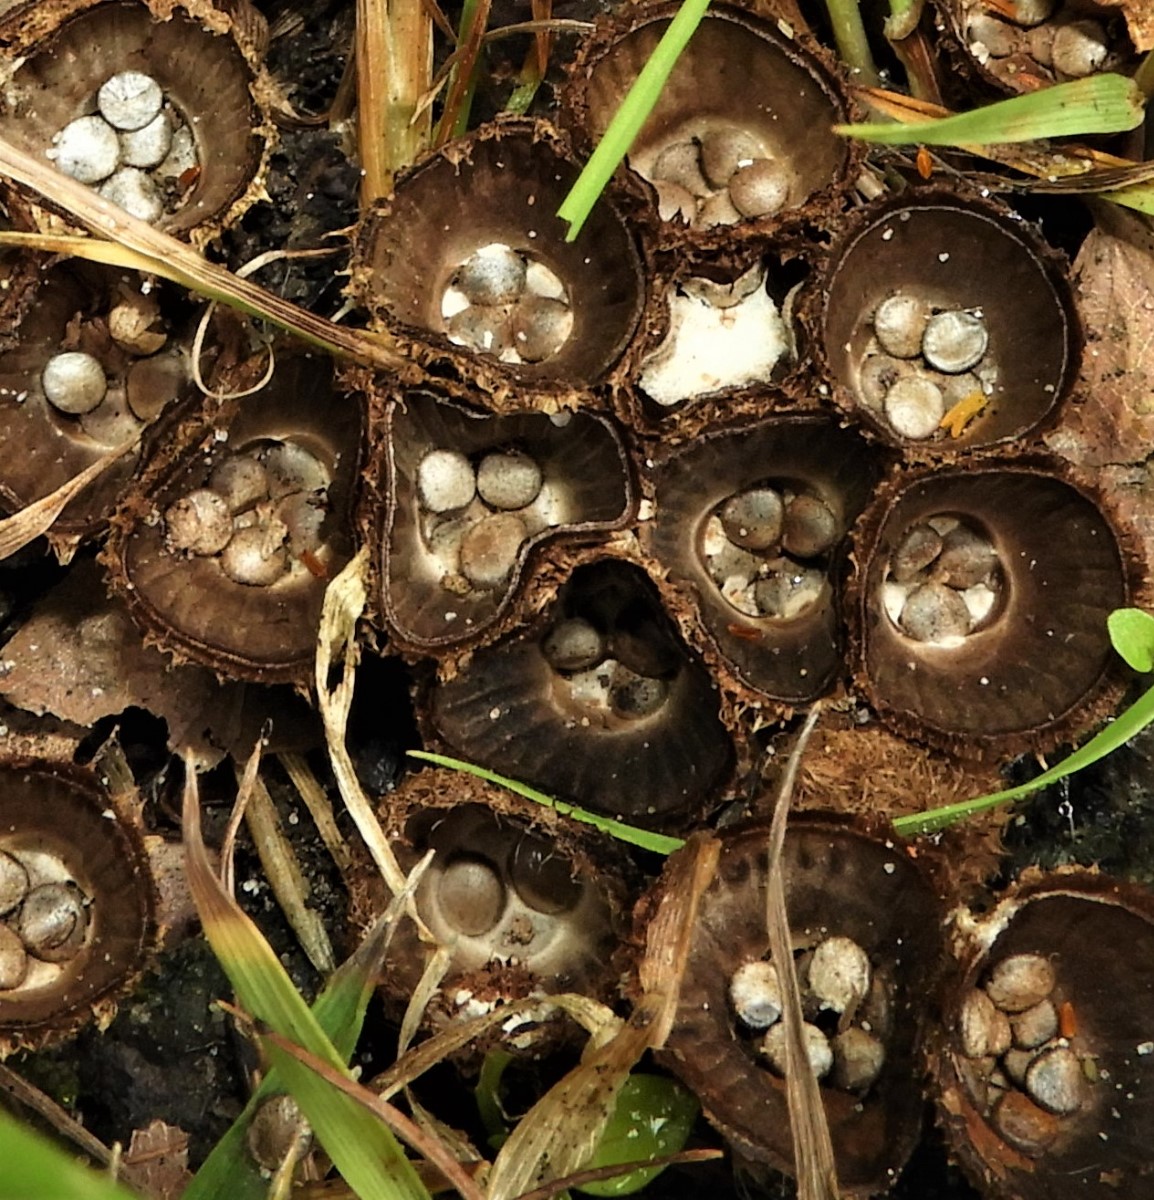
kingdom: Fungi
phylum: Basidiomycota
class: Agaricomycetes
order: Agaricales
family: Agaricaceae
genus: Cyathus
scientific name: Cyathus striatus
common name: stribet redesvamp
